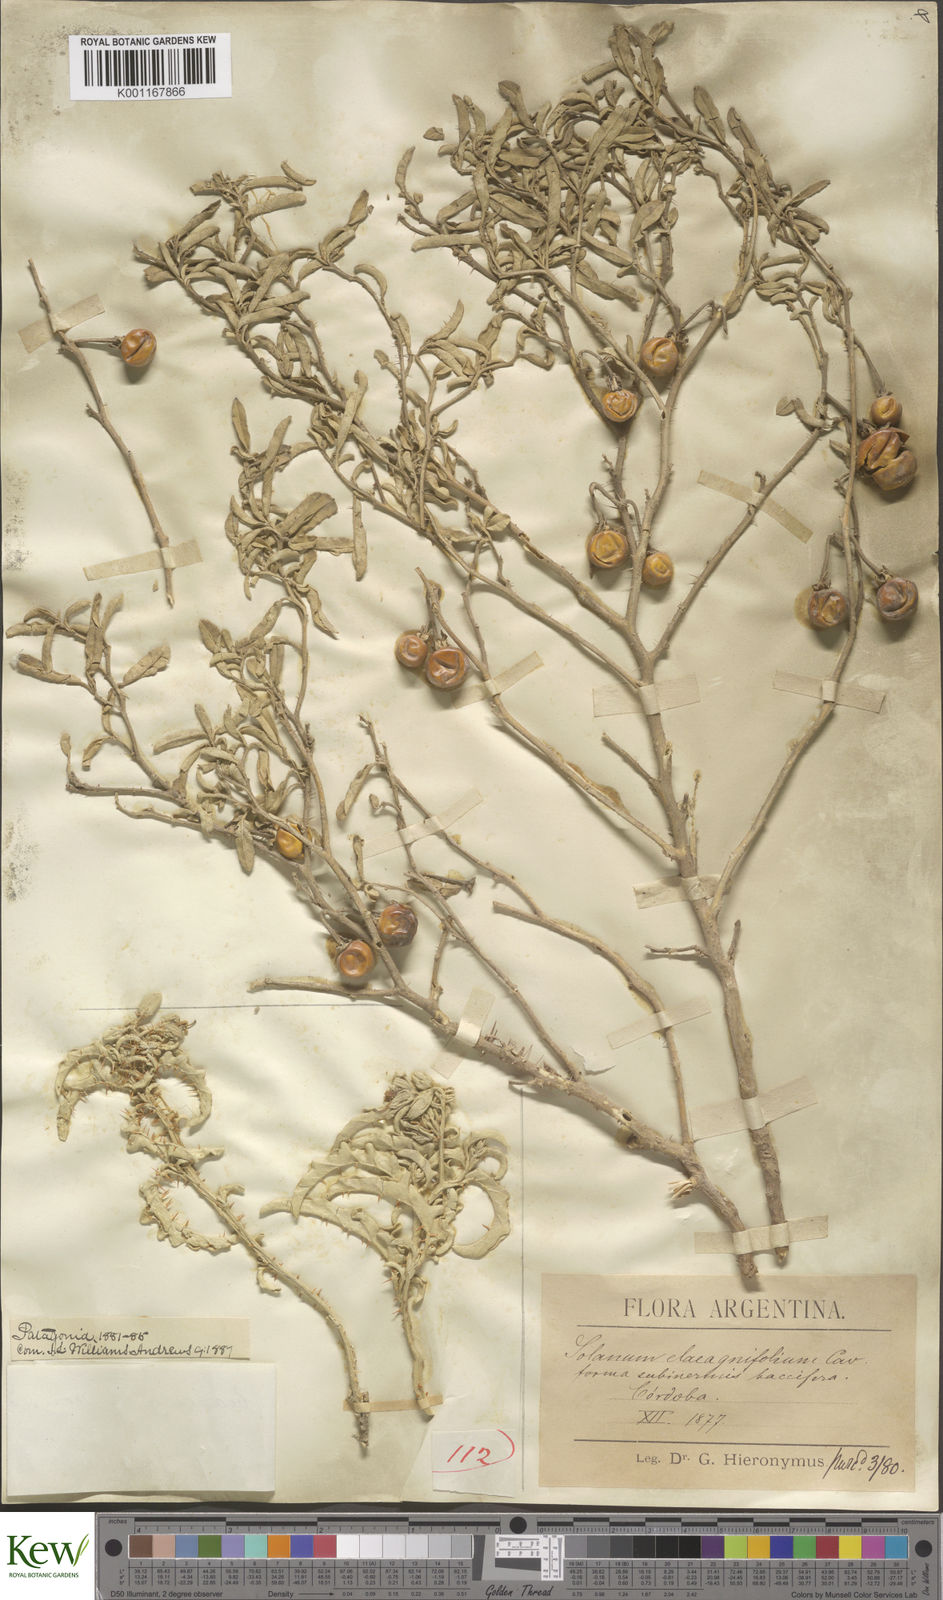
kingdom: Plantae
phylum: Tracheophyta
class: Magnoliopsida
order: Solanales
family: Solanaceae
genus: Solanum
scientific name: Solanum elaeagnifolium
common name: Silverleaf nightshade
